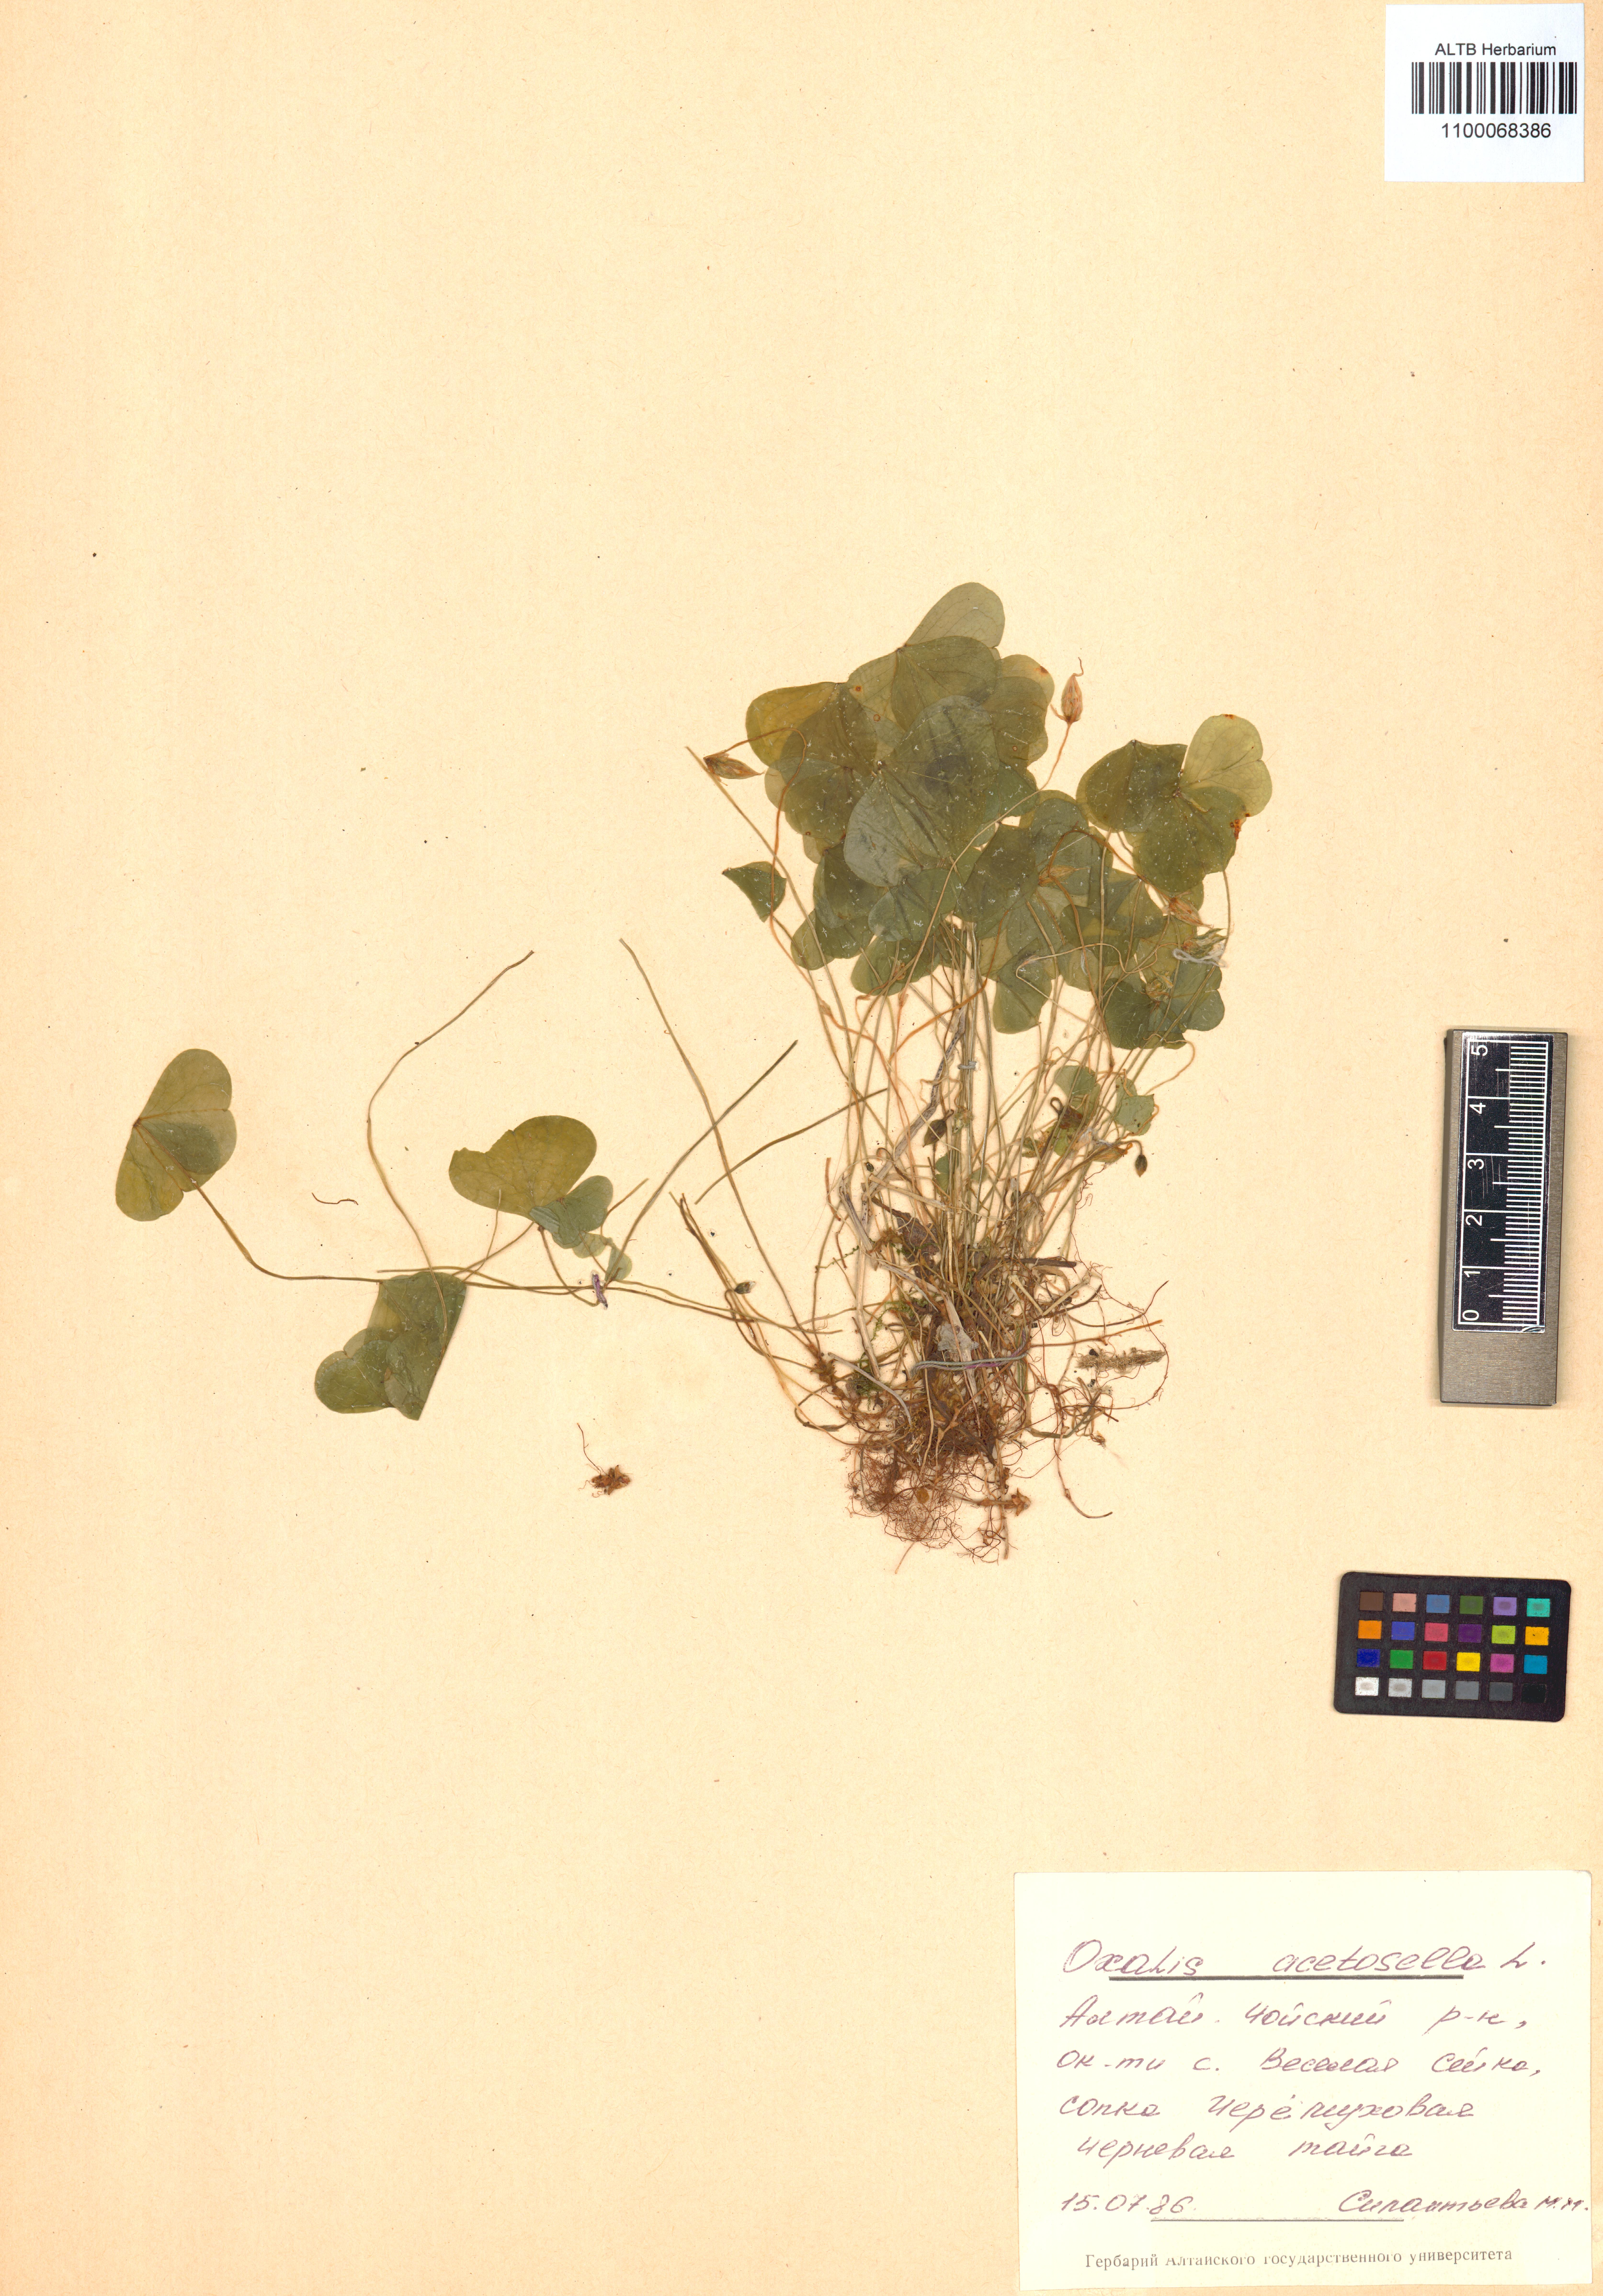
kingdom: Plantae
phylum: Tracheophyta
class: Magnoliopsida
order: Oxalidales
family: Oxalidaceae
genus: Oxalis
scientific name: Oxalis acetosella
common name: Wood-sorrel
